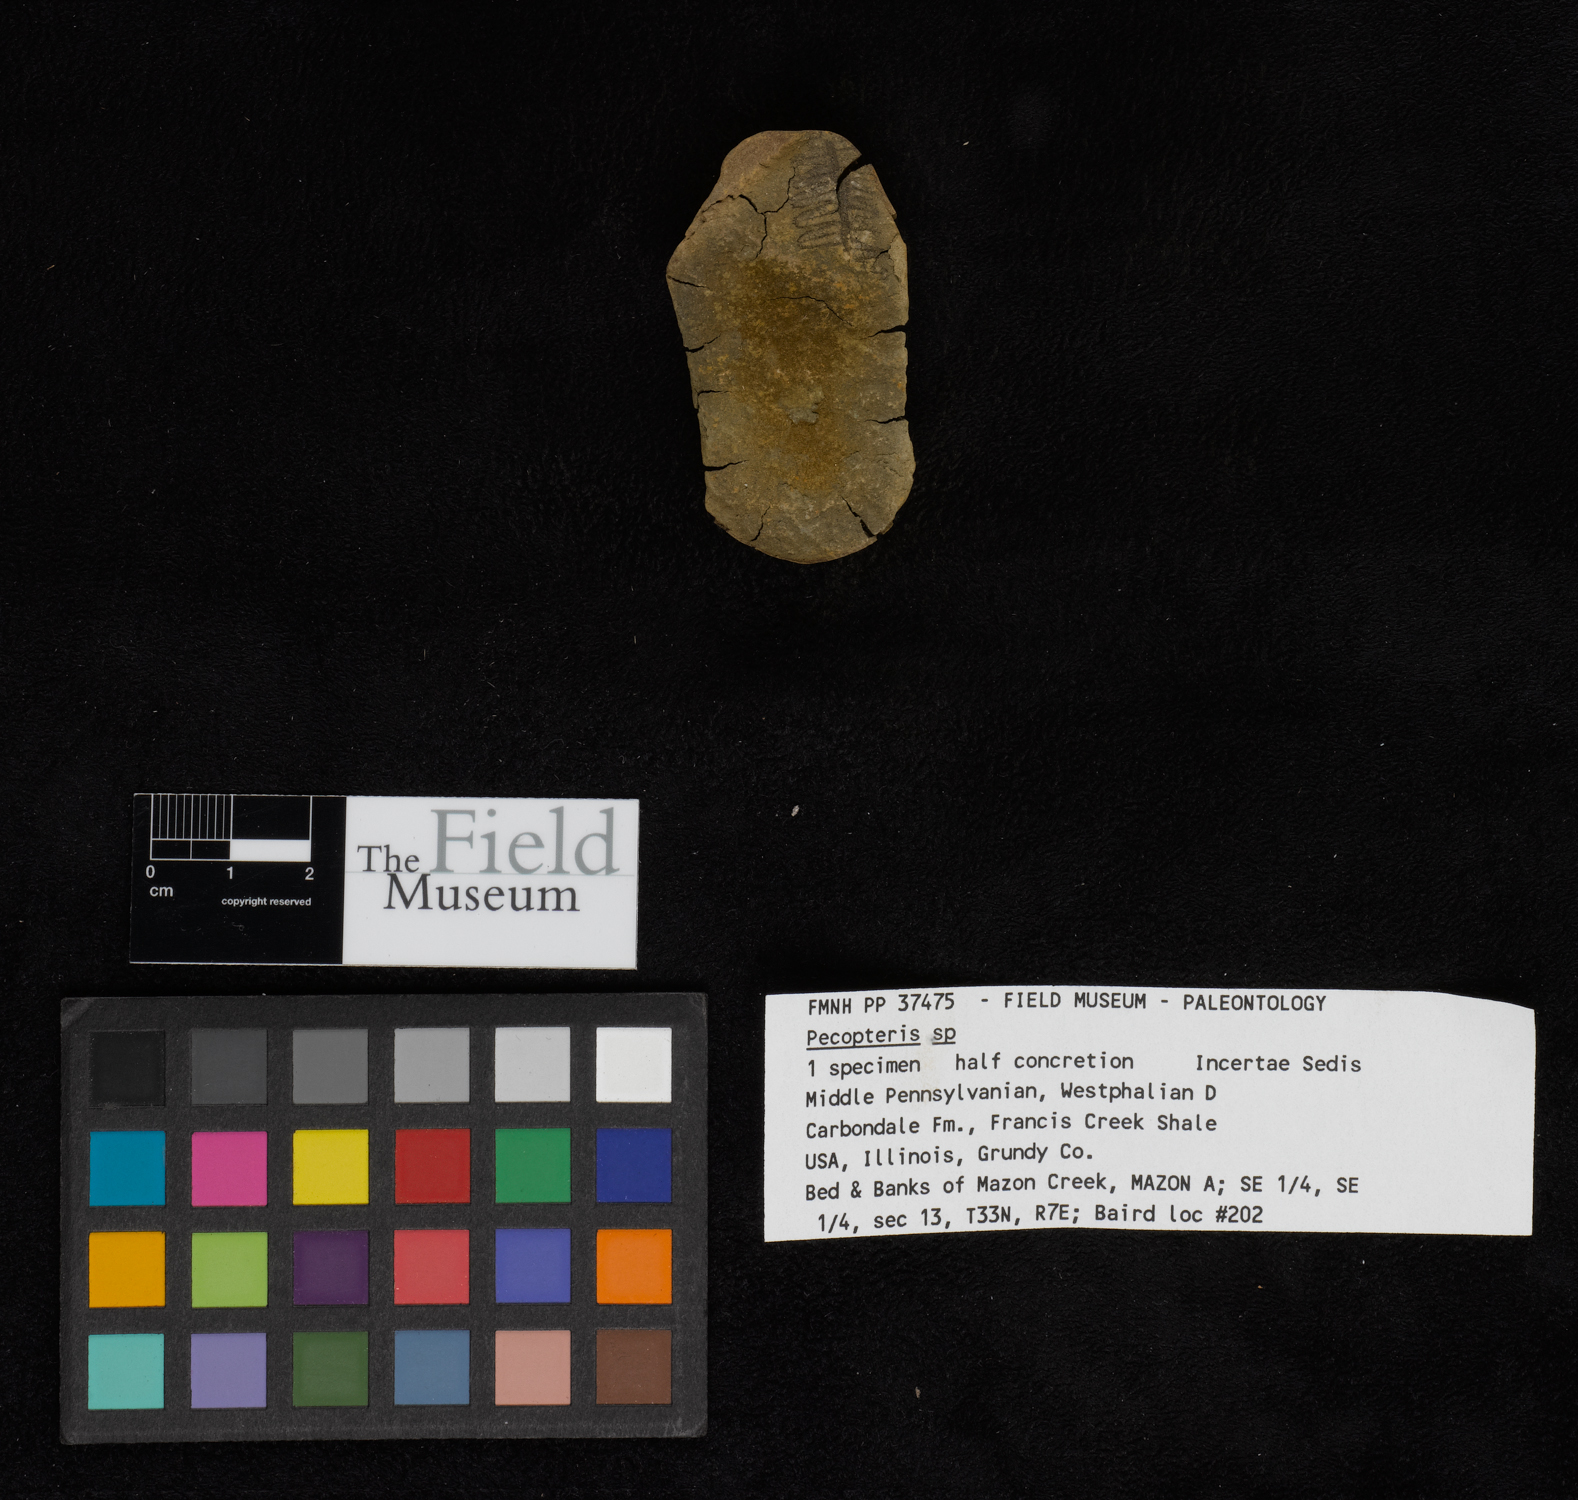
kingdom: Plantae
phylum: Tracheophyta
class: Polypodiopsida
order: Marattiales
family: Asterothecaceae
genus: Pecopteris
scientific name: Pecopteris
